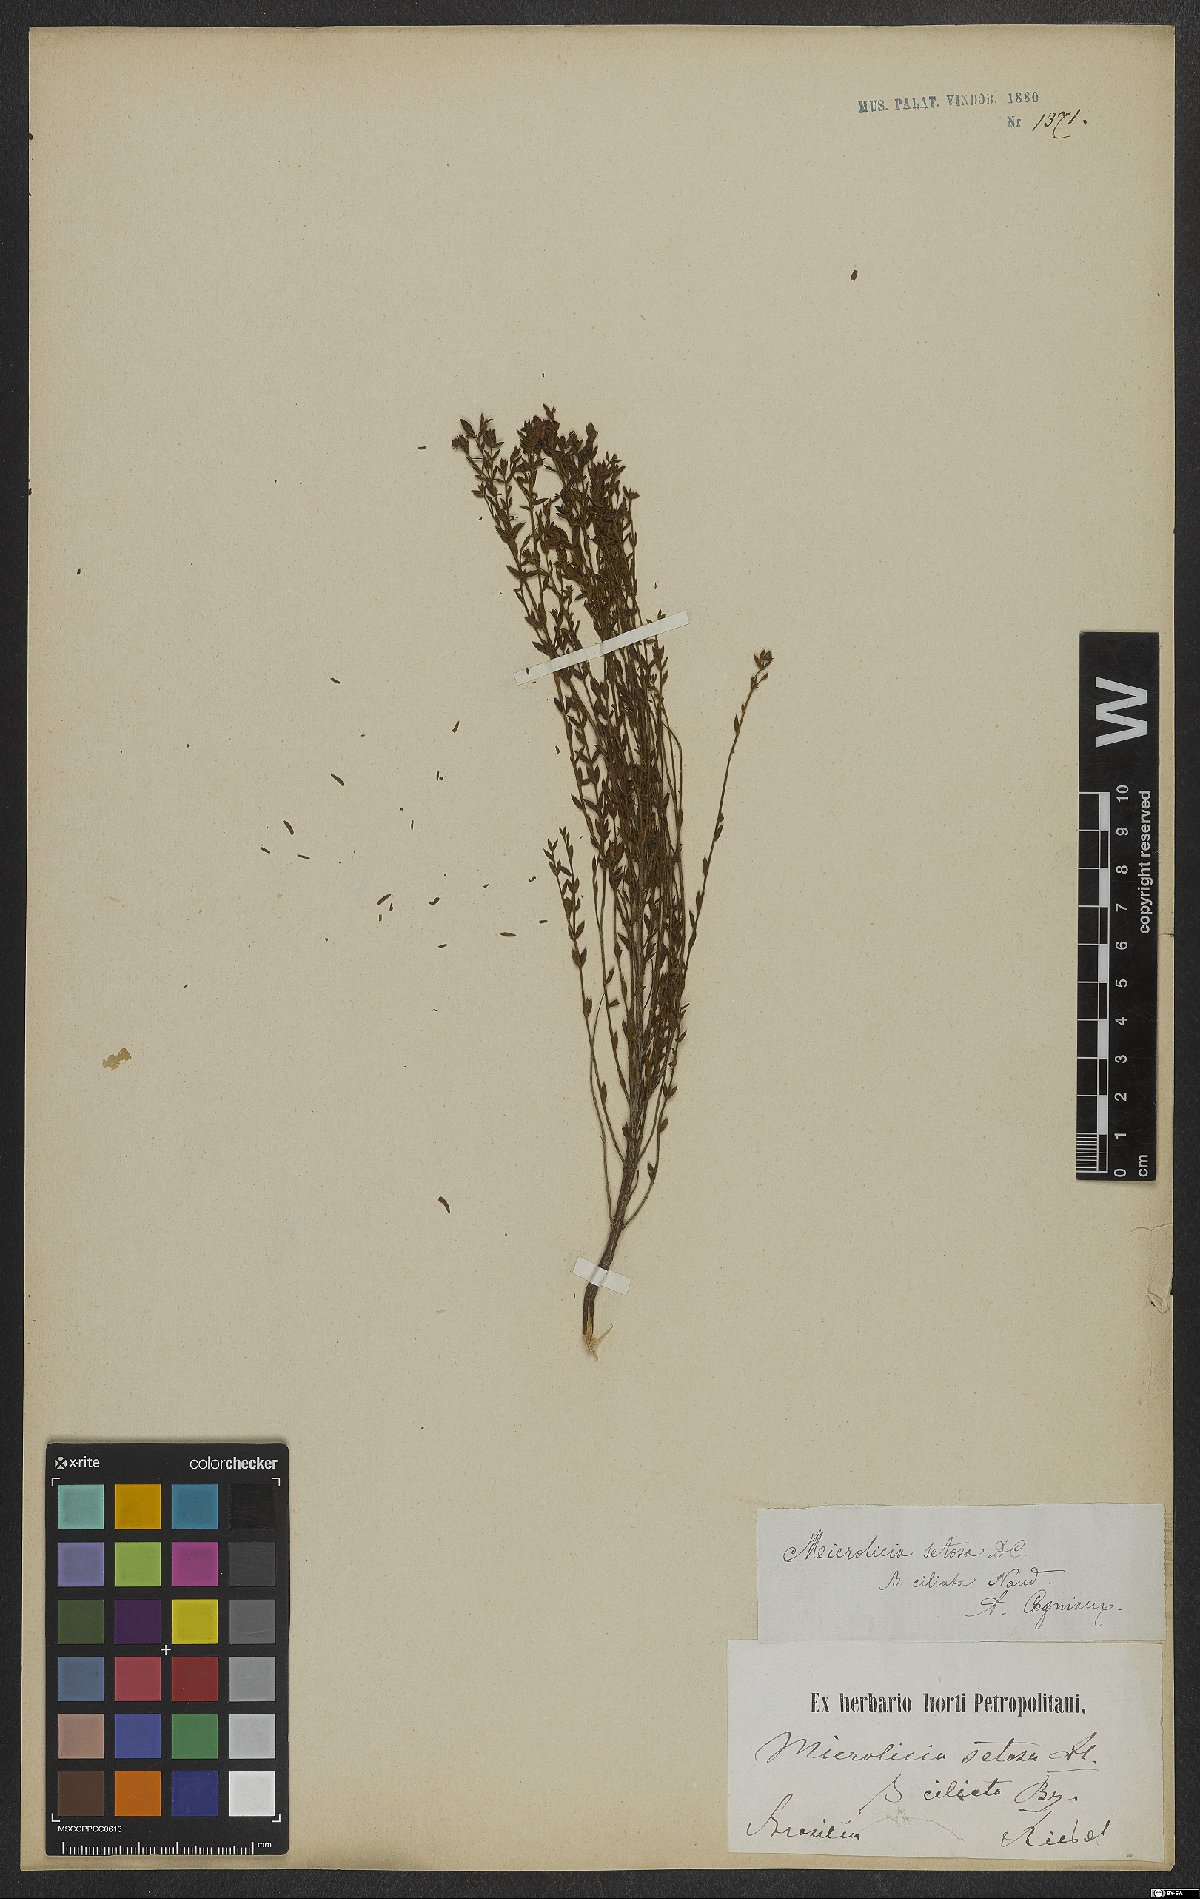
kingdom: Plantae
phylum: Tracheophyta
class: Magnoliopsida
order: Myrtales
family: Melastomataceae
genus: Microlicia
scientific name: Microlicia setosa
